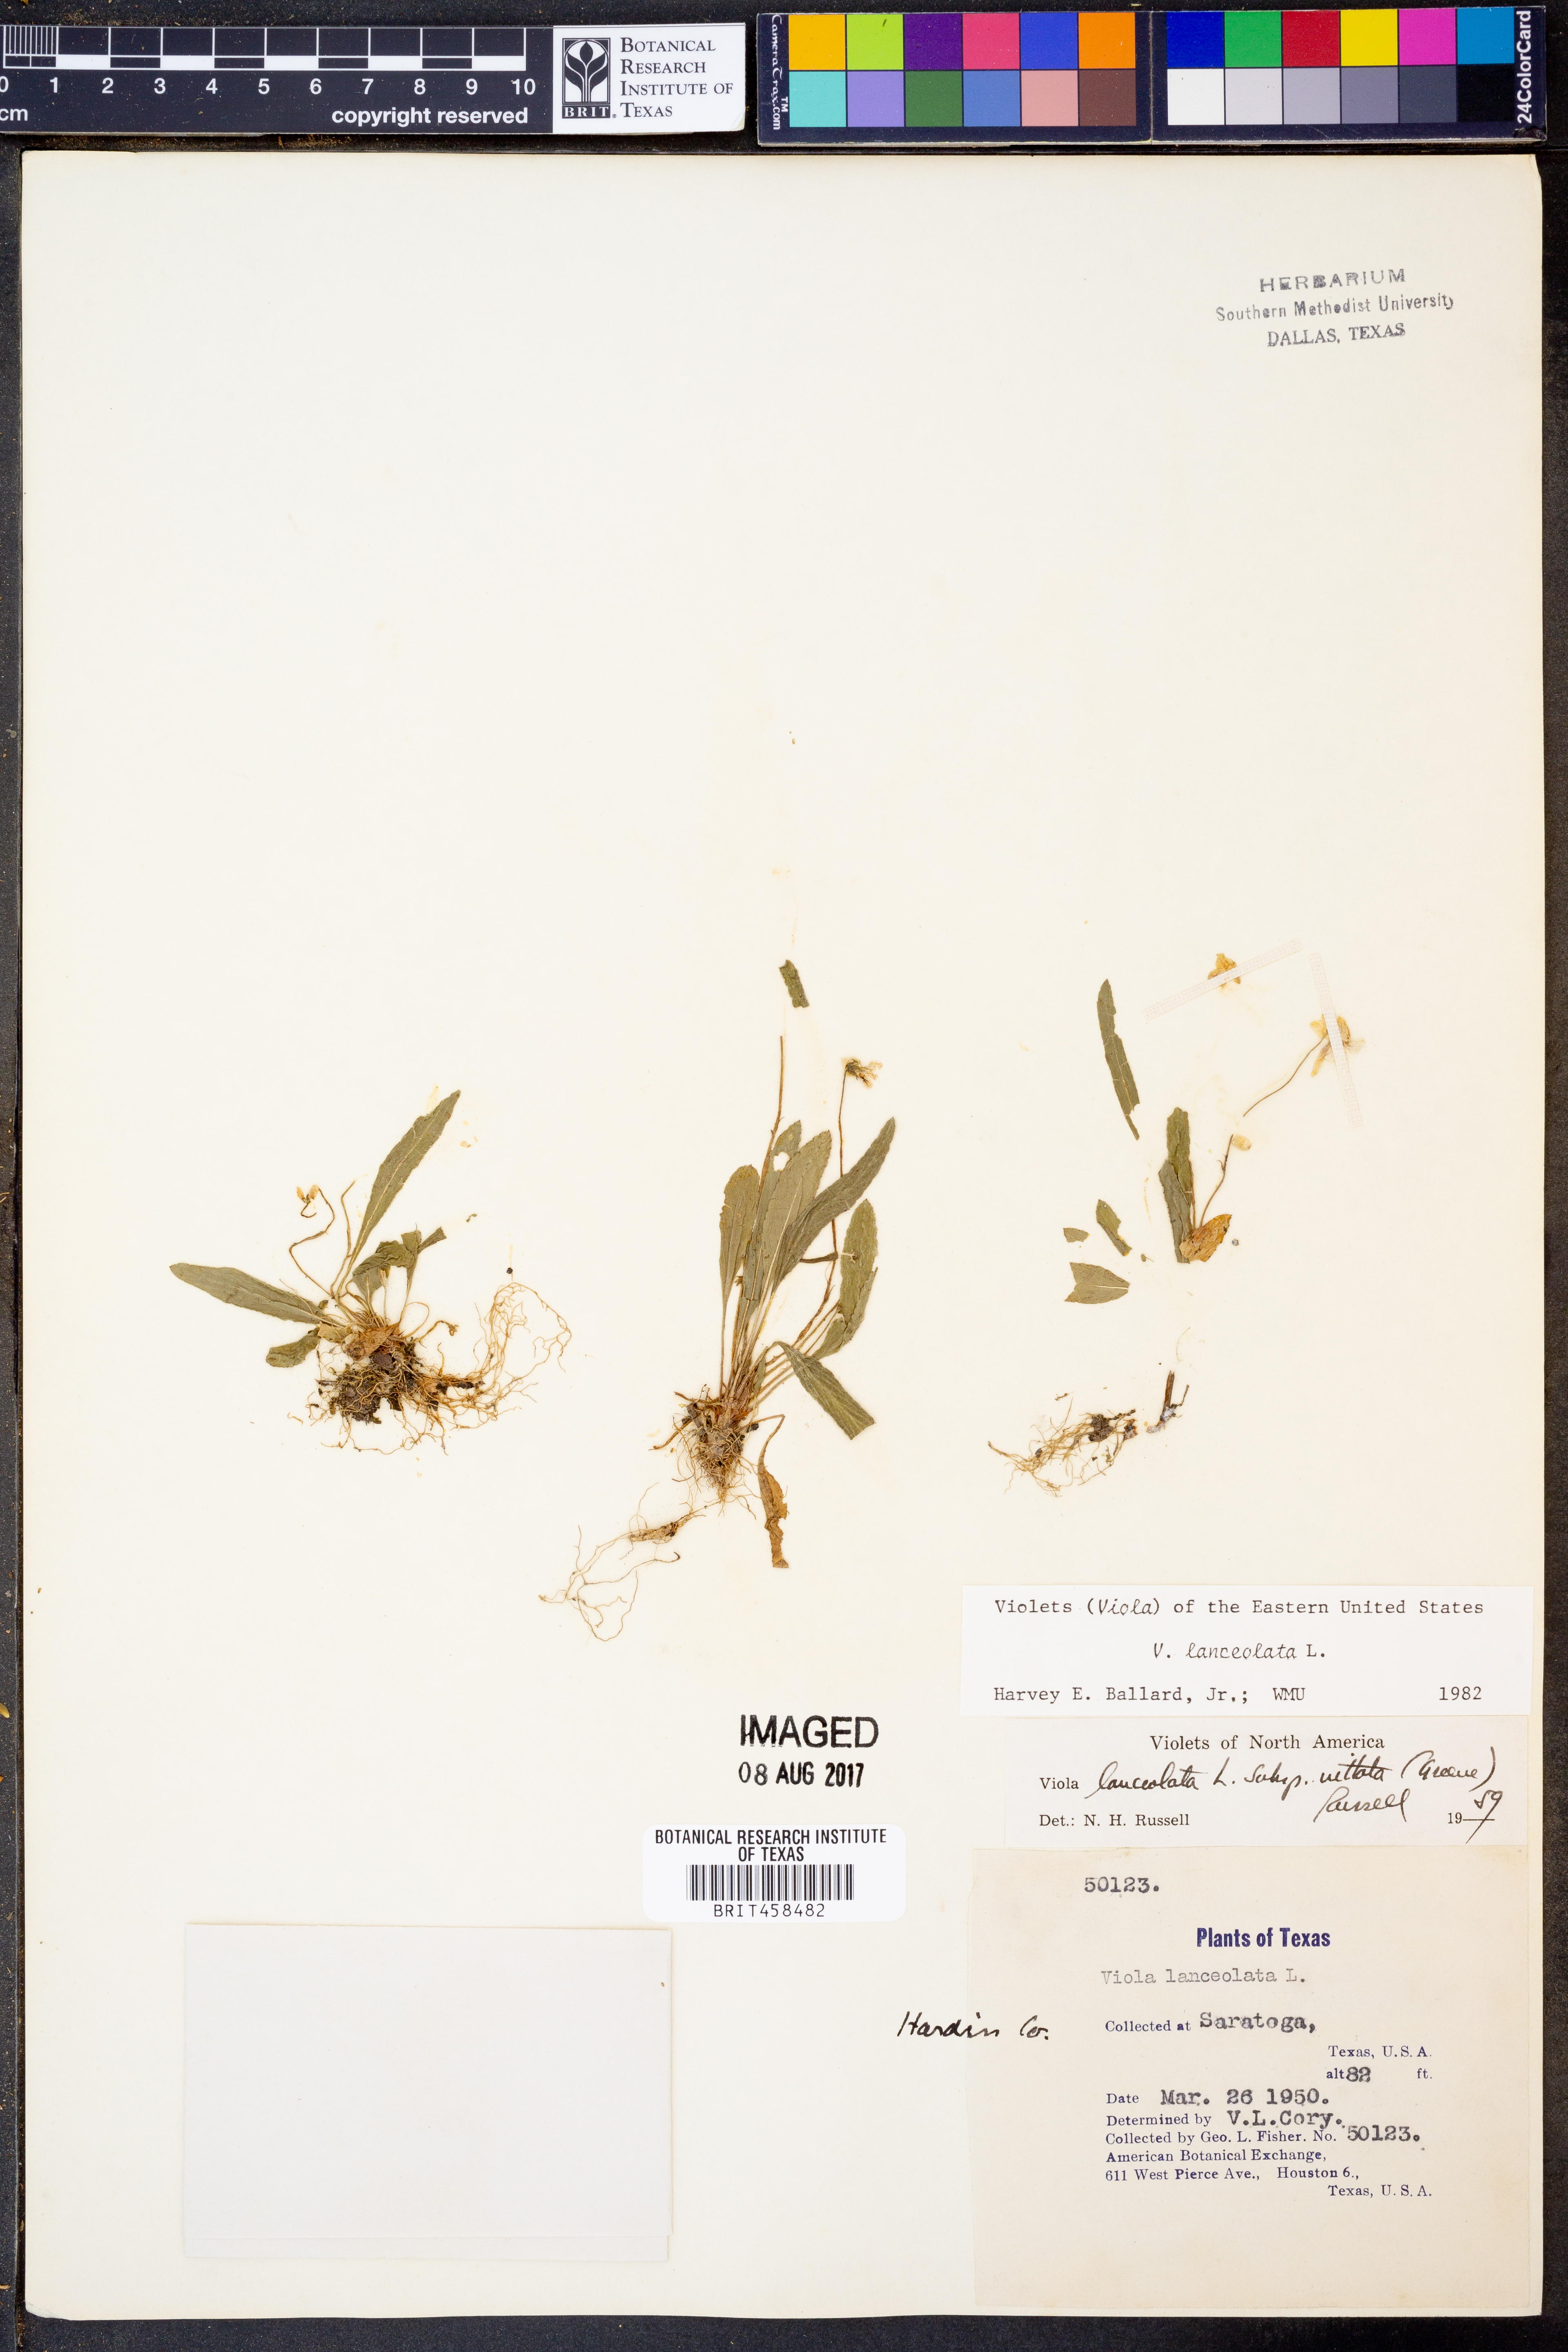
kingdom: Plantae
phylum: Tracheophyta
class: Magnoliopsida
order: Malpighiales
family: Violaceae
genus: Viola
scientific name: Viola lanceolata
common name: Bog white violet
